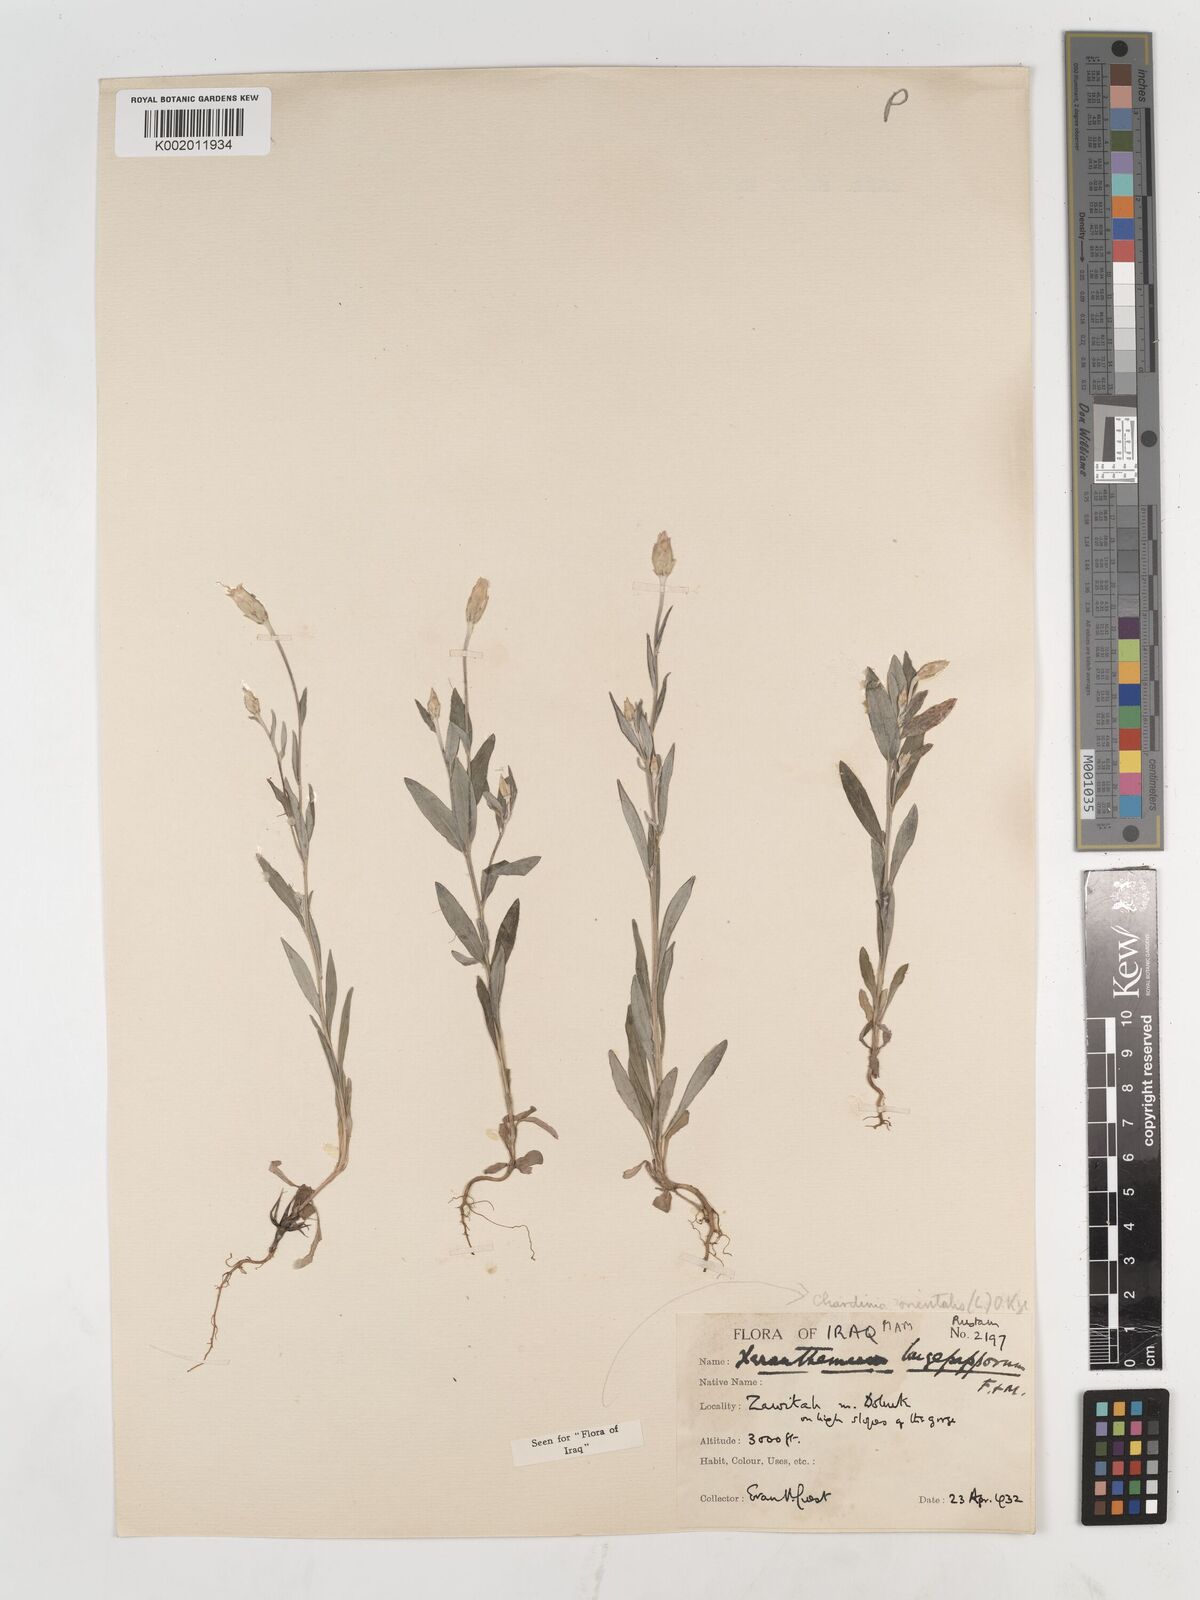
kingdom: Plantae
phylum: Tracheophyta
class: Magnoliopsida
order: Asterales
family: Asteraceae
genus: Chardinia
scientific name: Chardinia orientalis
